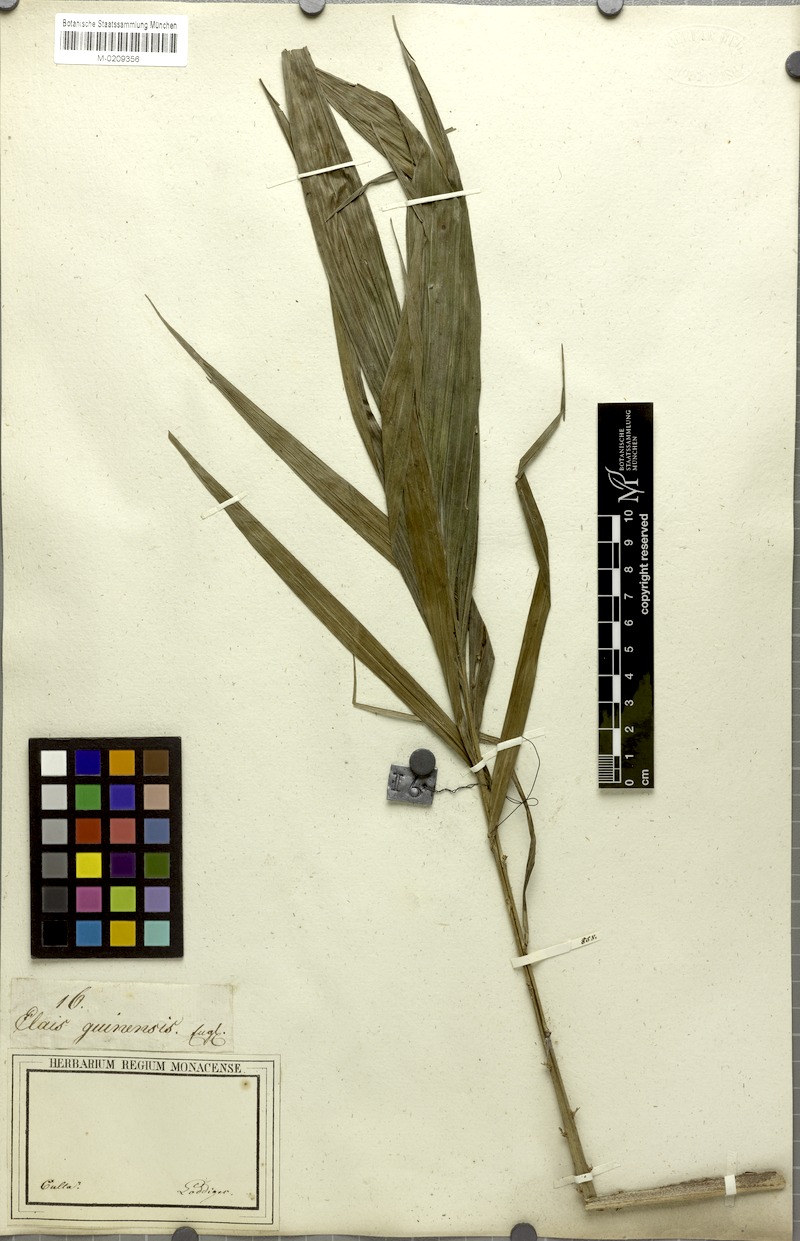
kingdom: Plantae
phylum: Tracheophyta
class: Liliopsida
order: Arecales
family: Arecaceae
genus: Elaeis
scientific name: Elaeis guineensis
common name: Oil palm
